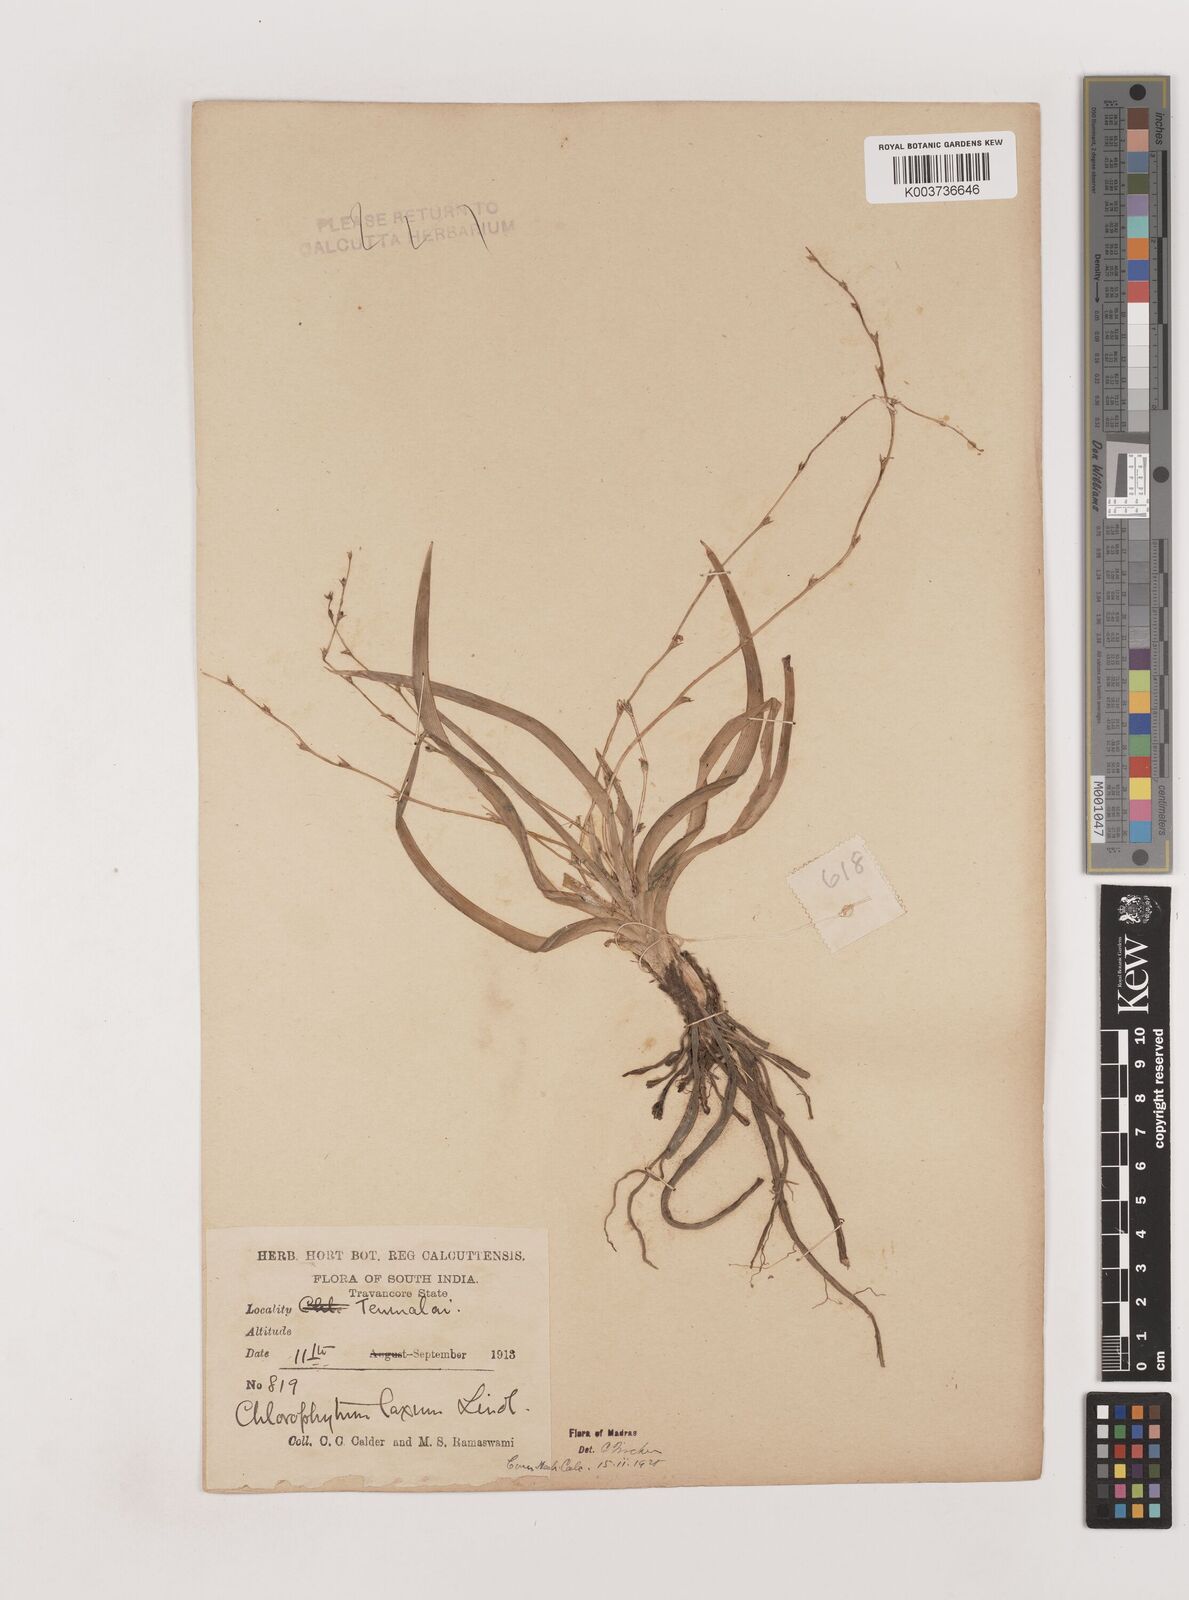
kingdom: Plantae
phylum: Tracheophyta
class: Liliopsida
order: Asparagales
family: Asparagaceae
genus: Chlorophytum
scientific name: Chlorophytum laxum
